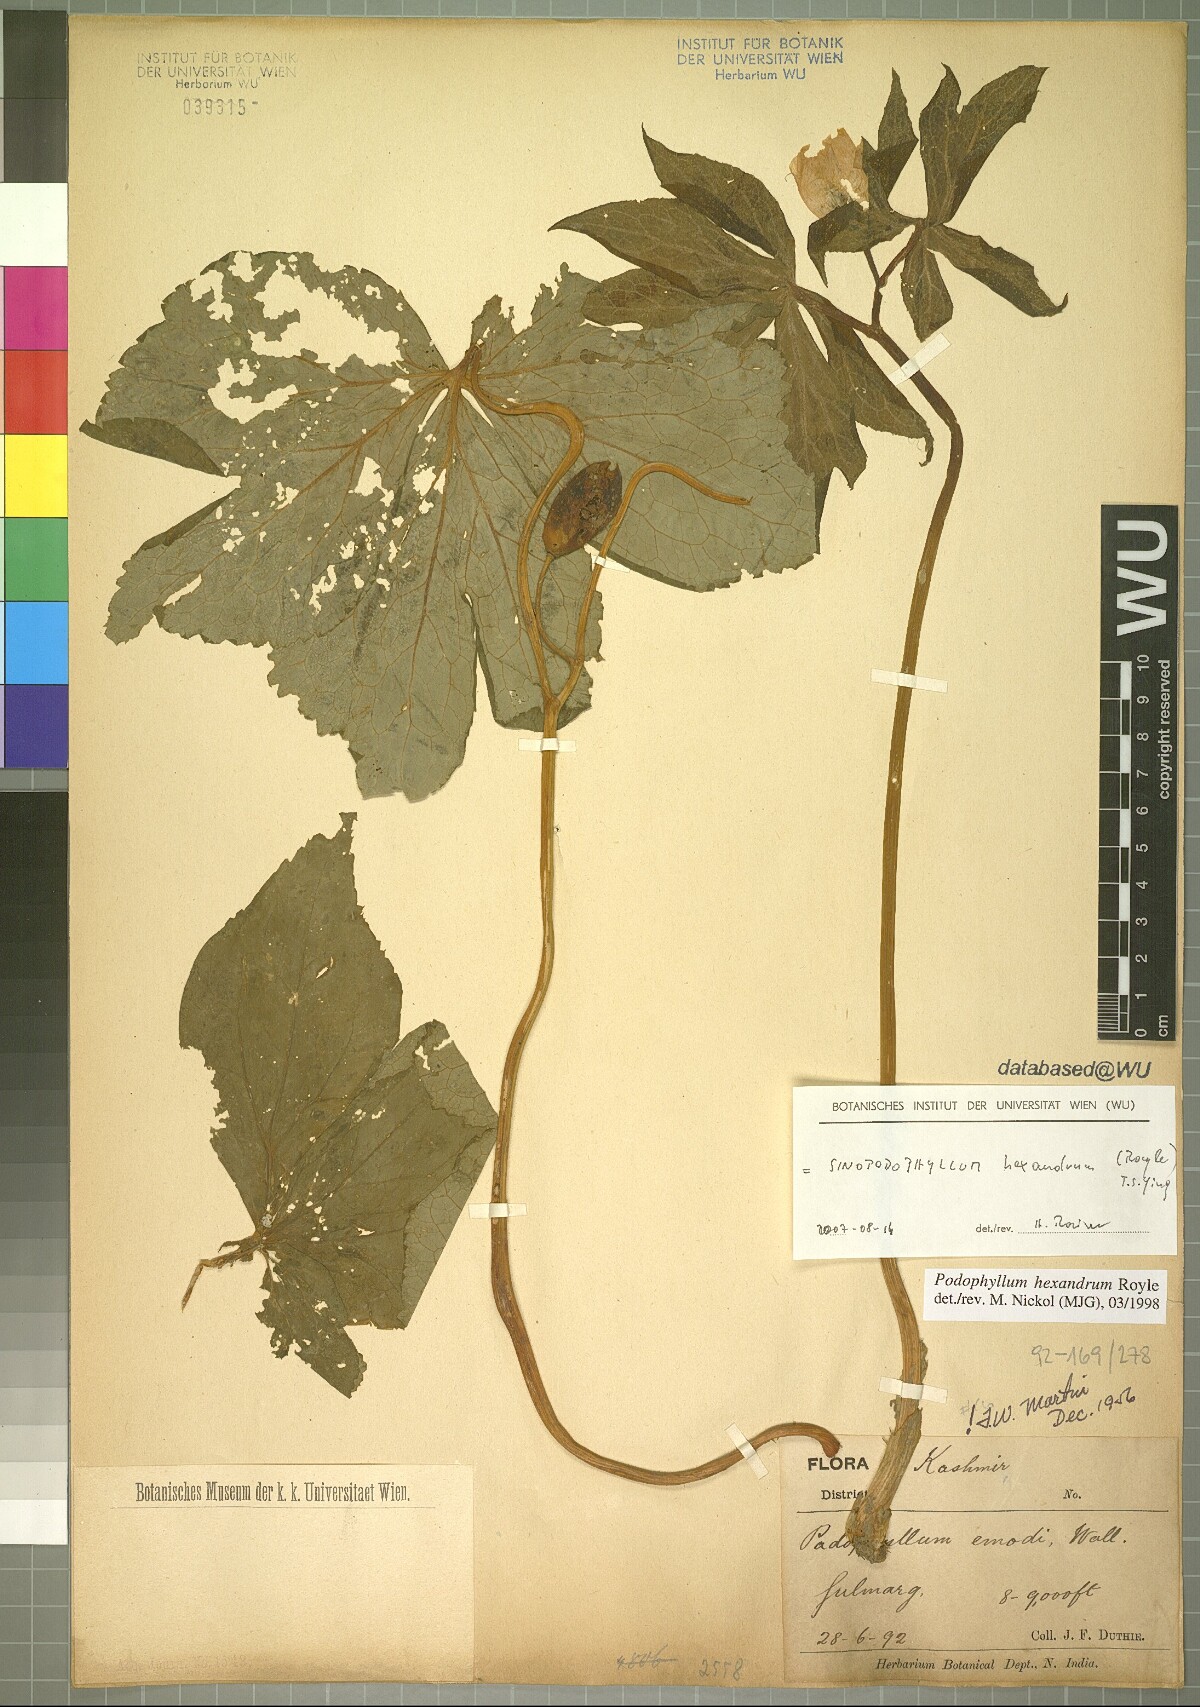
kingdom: Plantae
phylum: Tracheophyta
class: Magnoliopsida
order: Ranunculales
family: Berberidaceae
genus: Sinopodophyllum
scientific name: Sinopodophyllum hexandrum
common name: Himalayan may-apple
